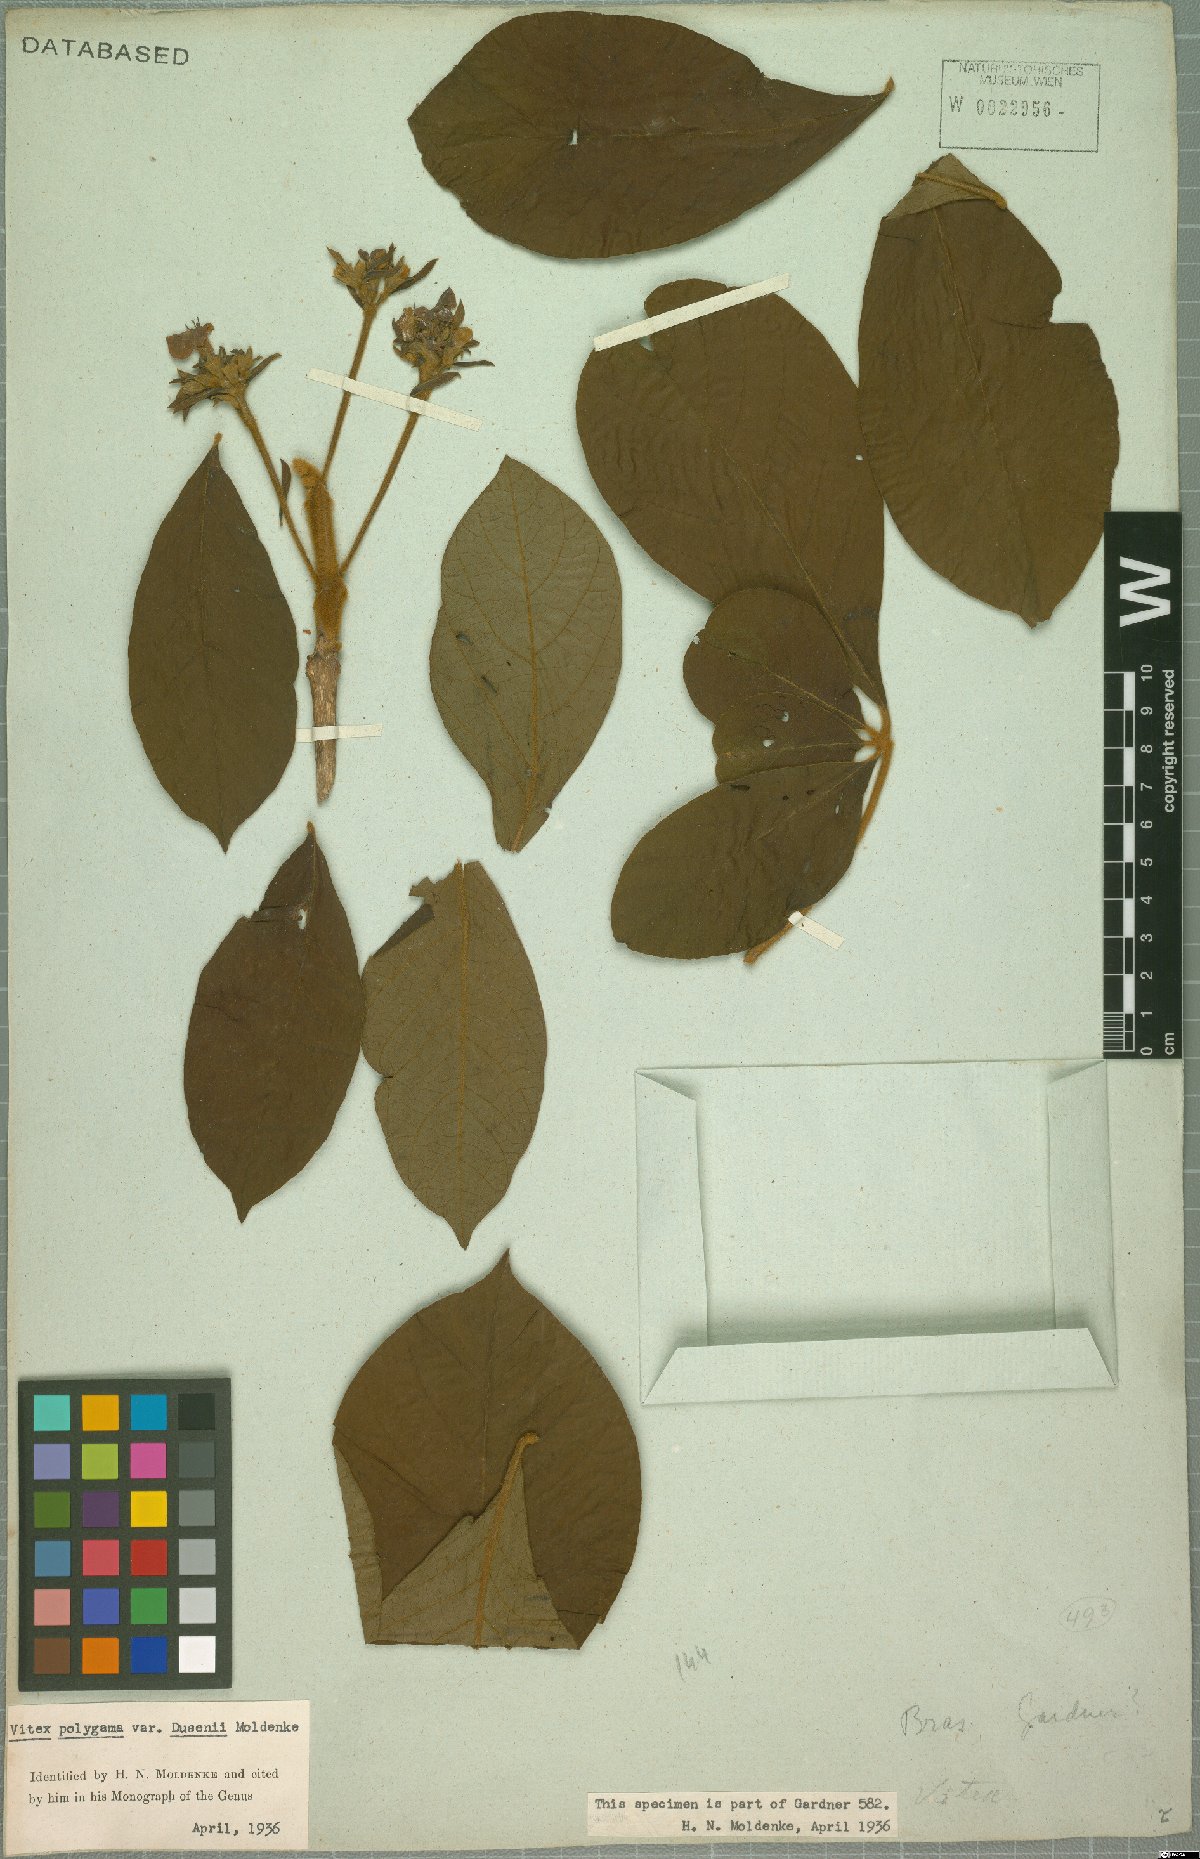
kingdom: Plantae
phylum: Tracheophyta
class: Magnoliopsida
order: Lamiales
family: Lamiaceae
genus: Vitex
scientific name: Vitex polygama
